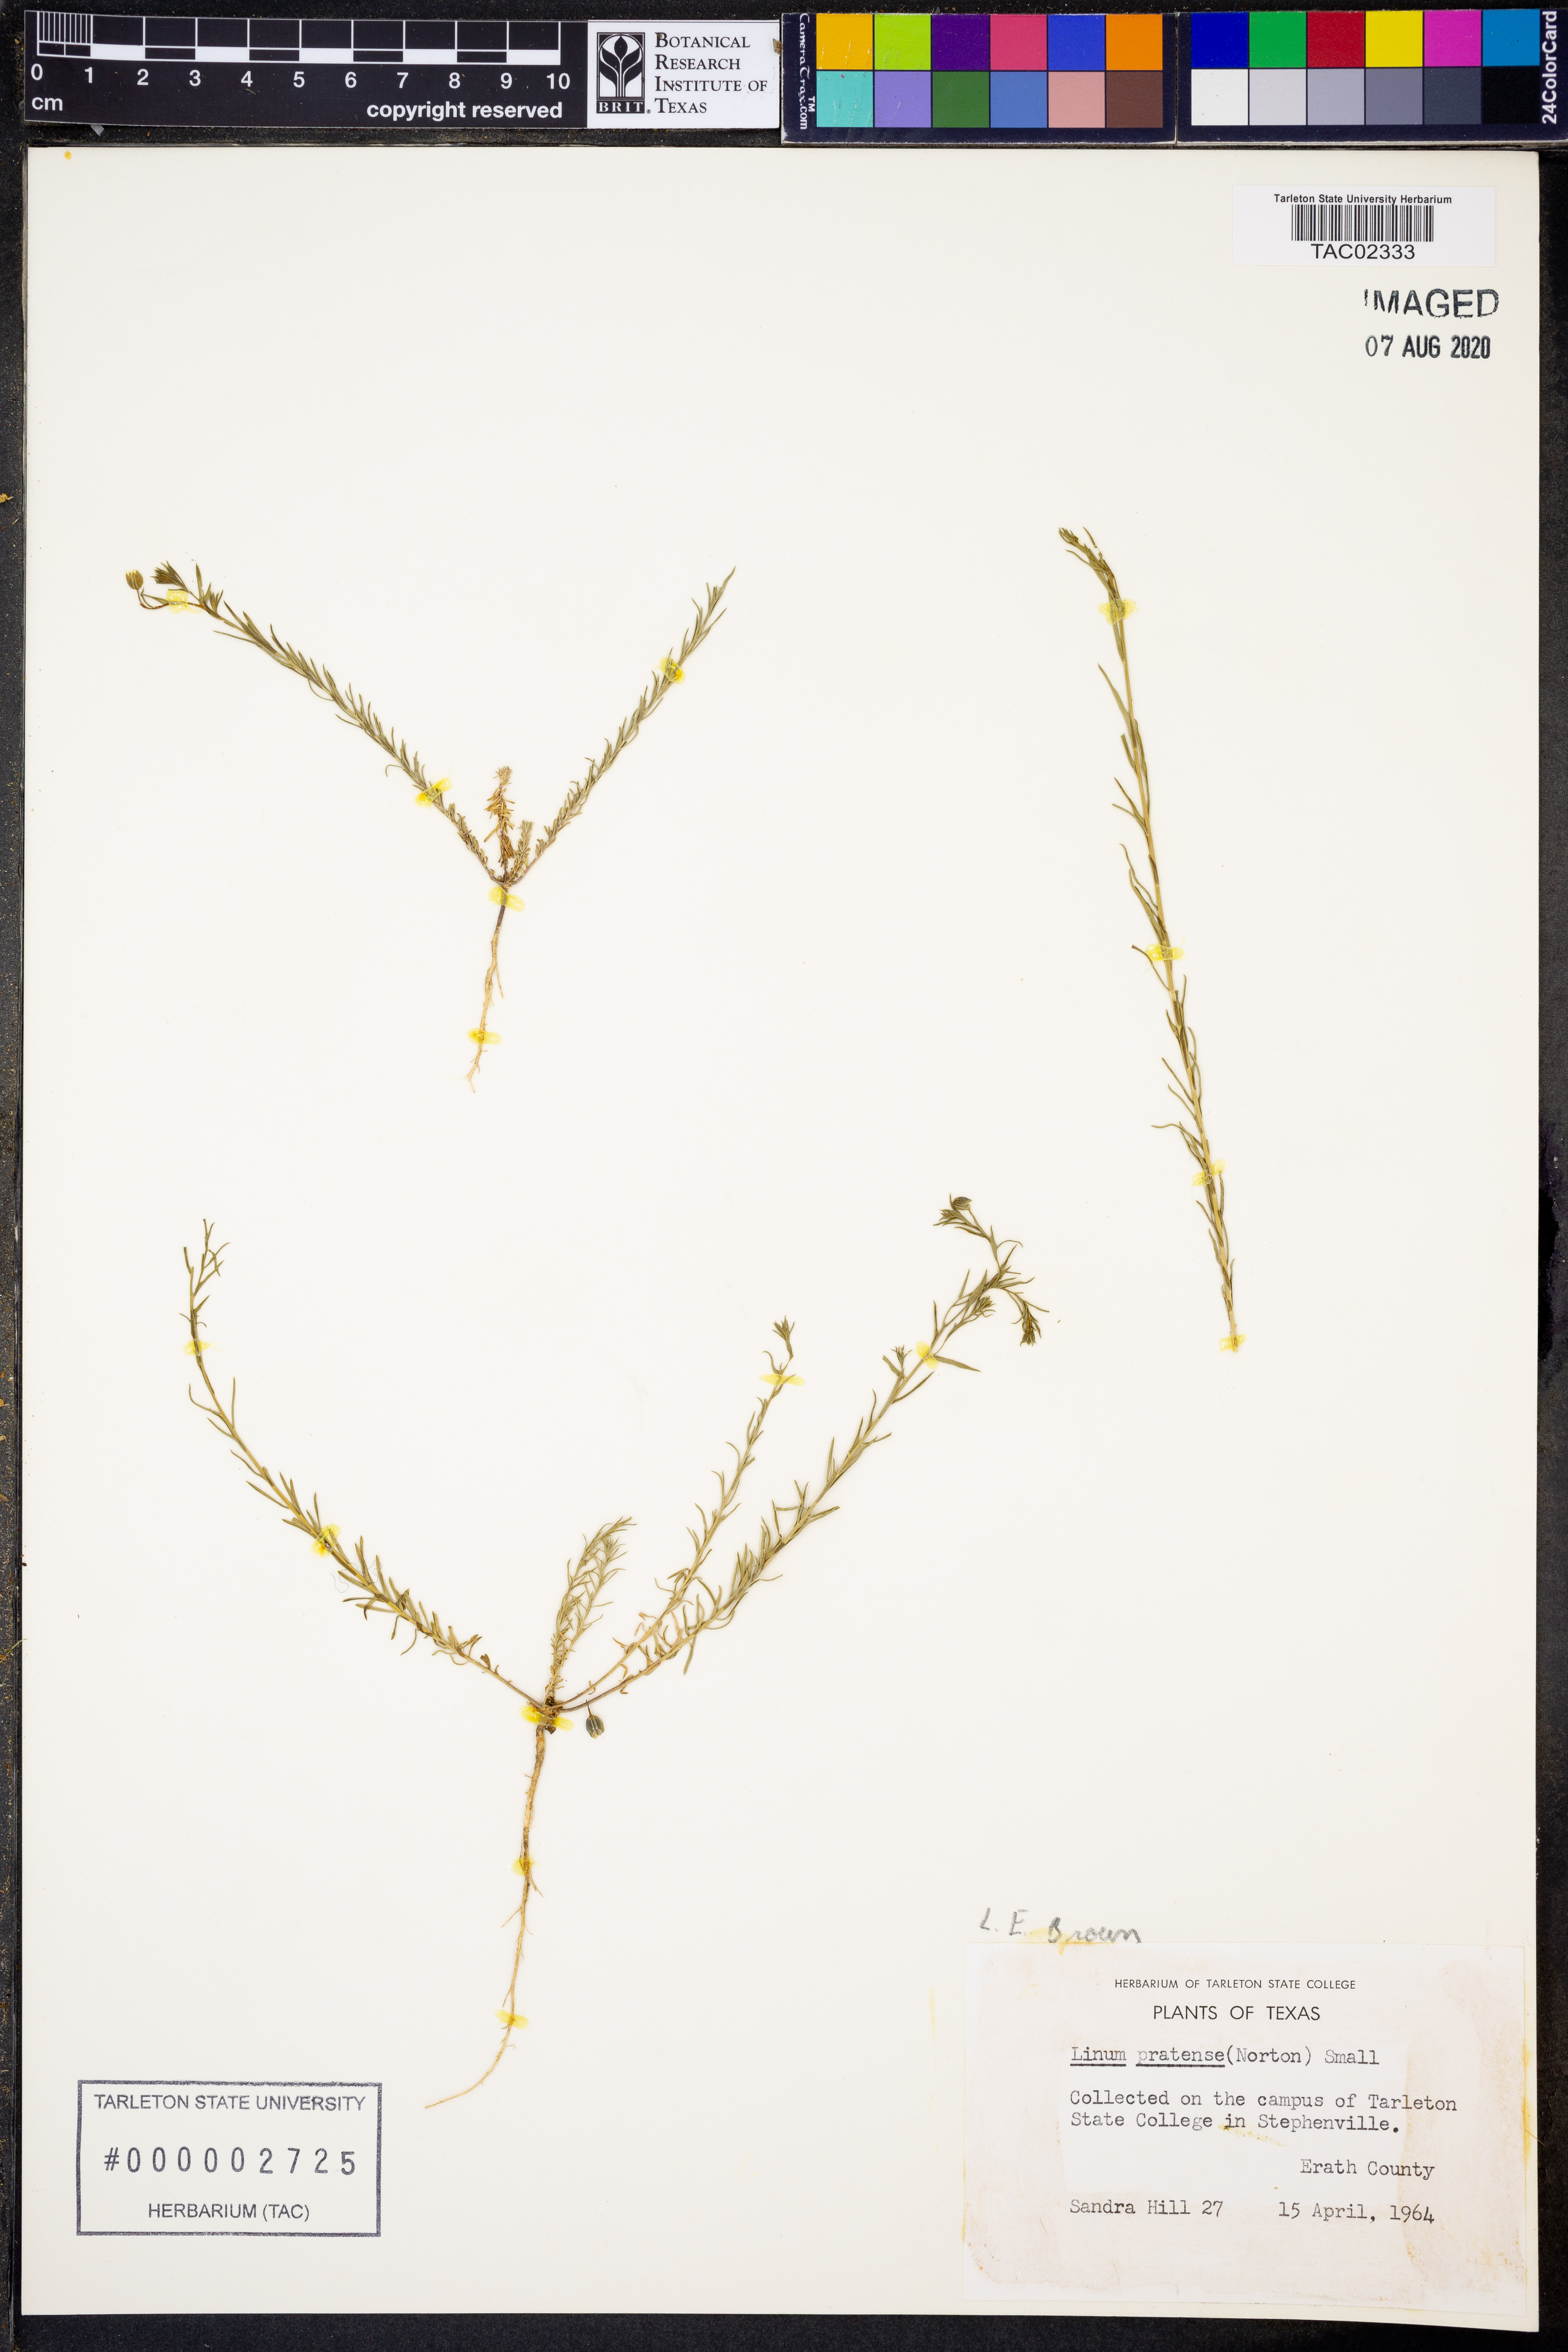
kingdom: Plantae
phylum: Tracheophyta
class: Magnoliopsida
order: Malpighiales
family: Linaceae
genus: Linum
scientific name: Linum pratense
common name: Norton's flax
